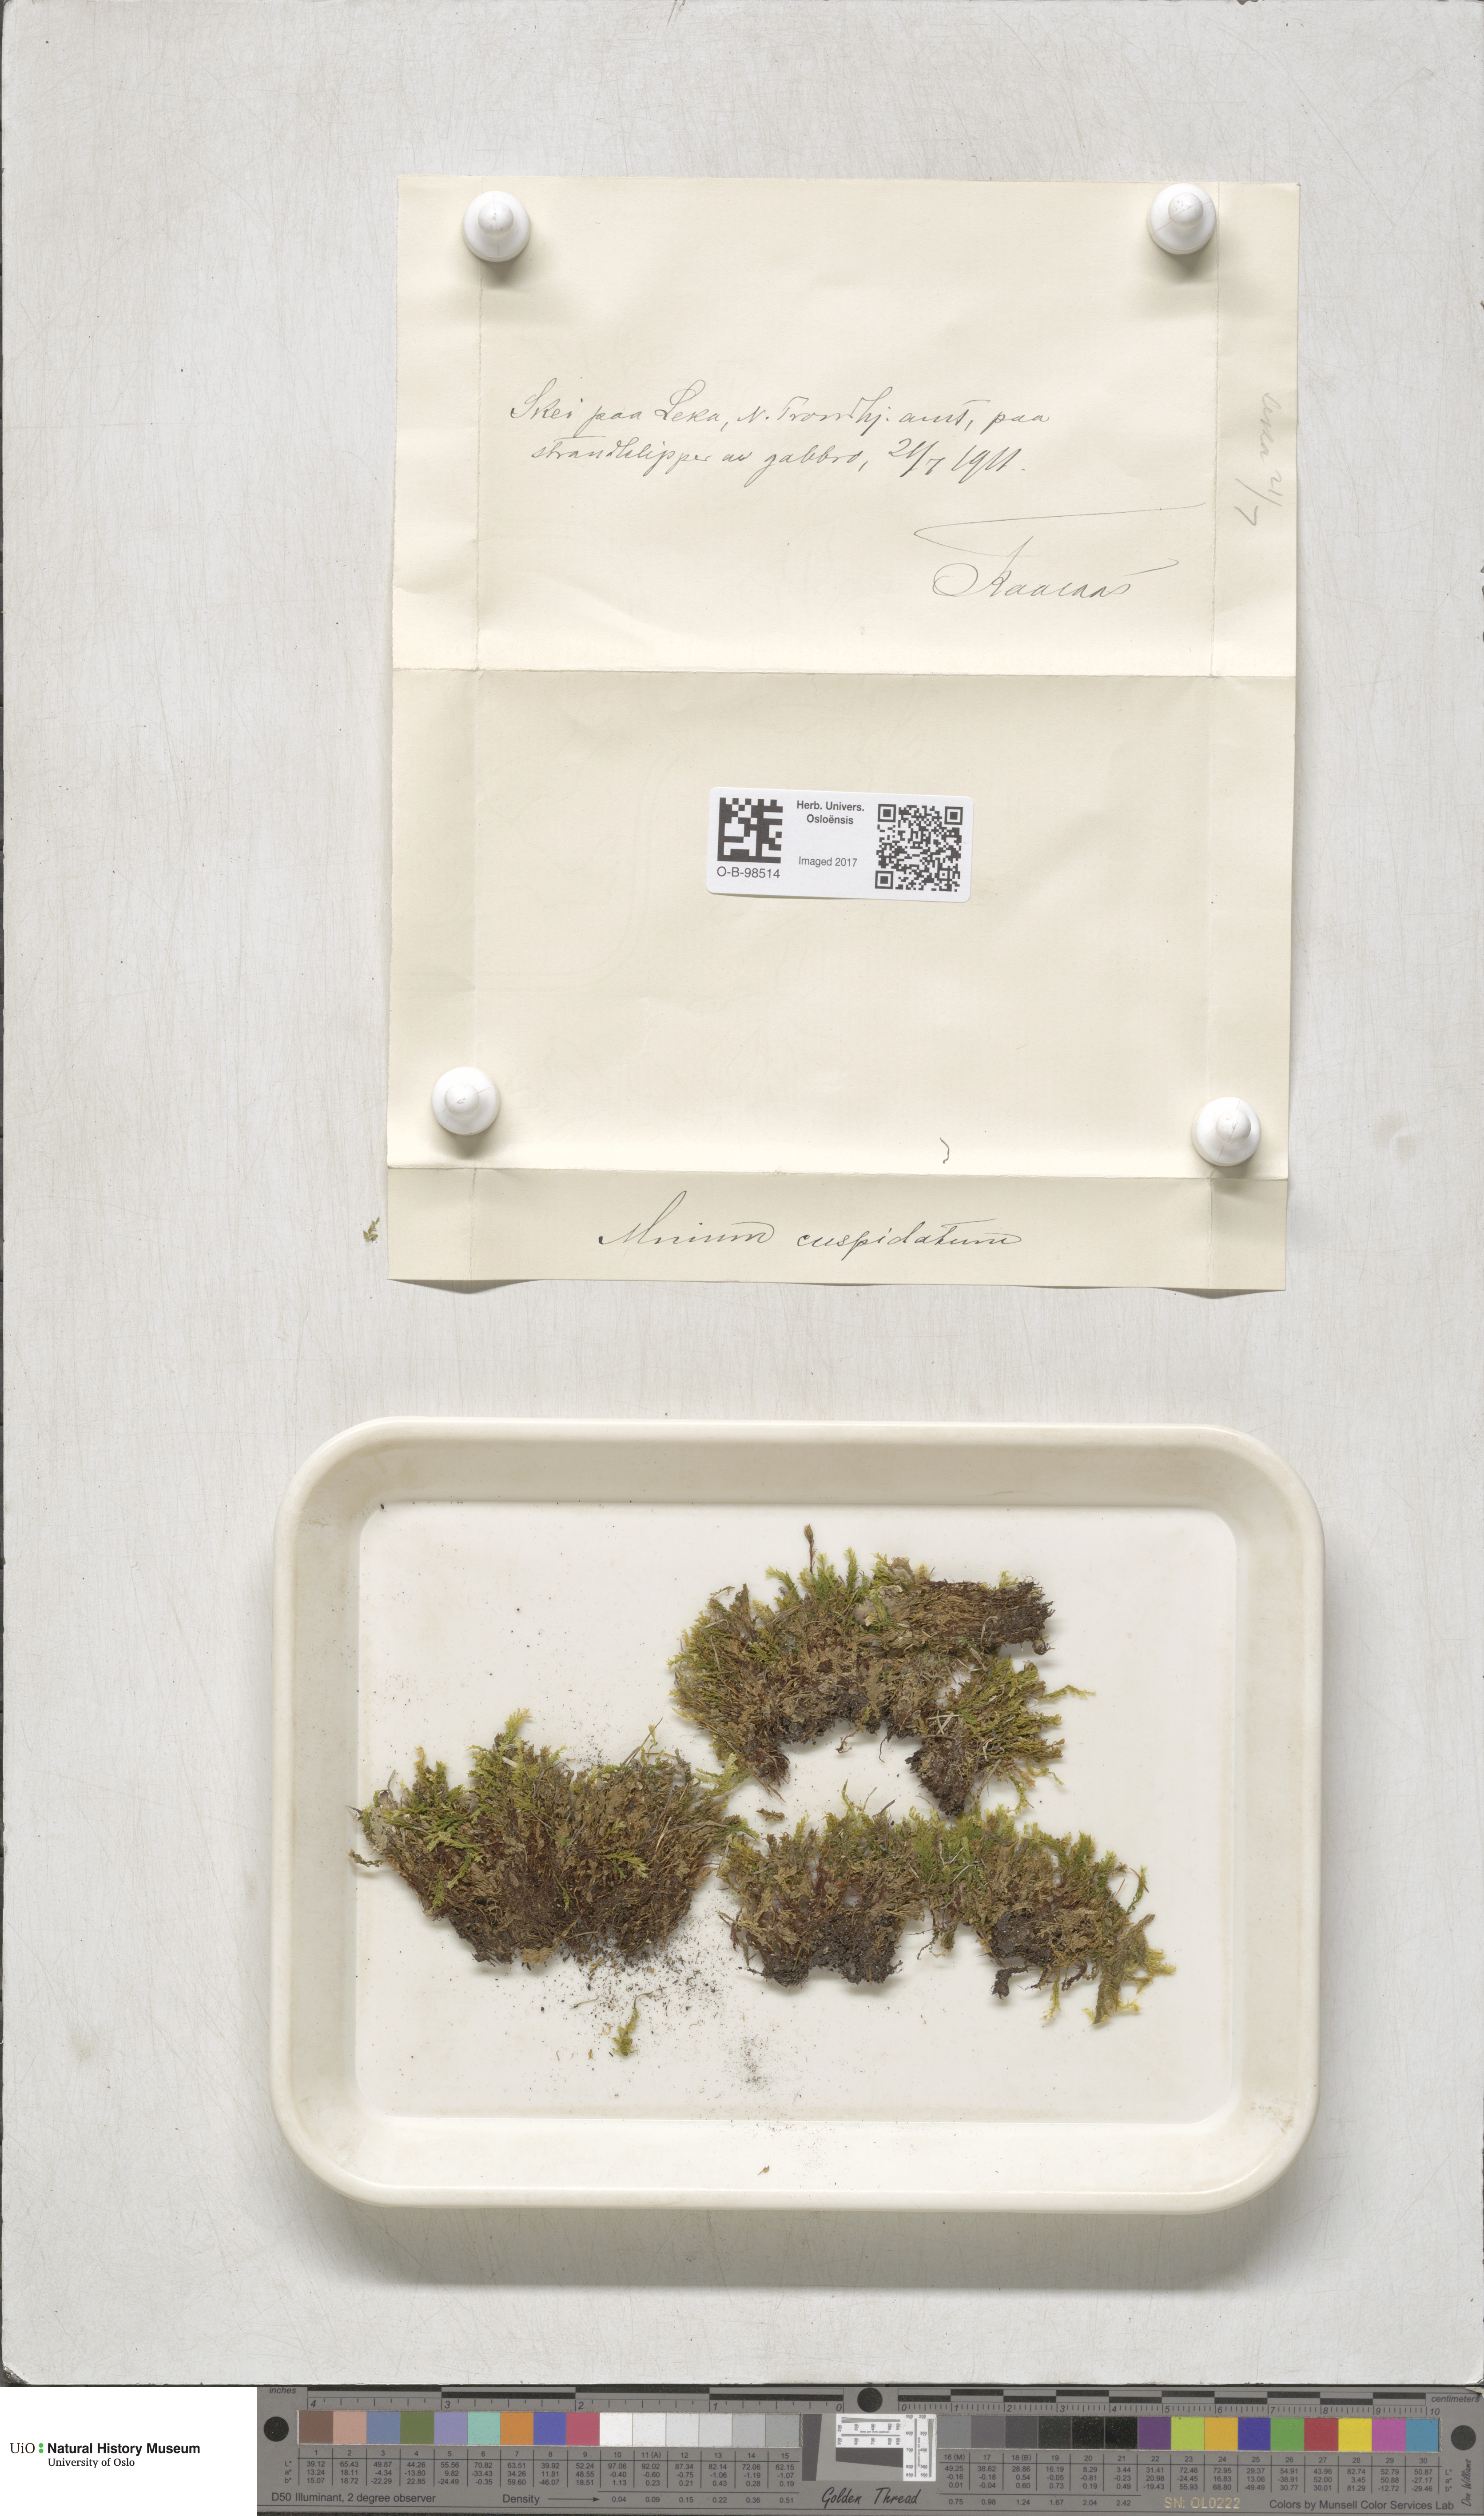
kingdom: Plantae
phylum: Bryophyta
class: Bryopsida
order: Bryales
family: Mniaceae
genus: Plagiomnium
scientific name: Plagiomnium cuspidatum
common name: Woodsy leafy moss
